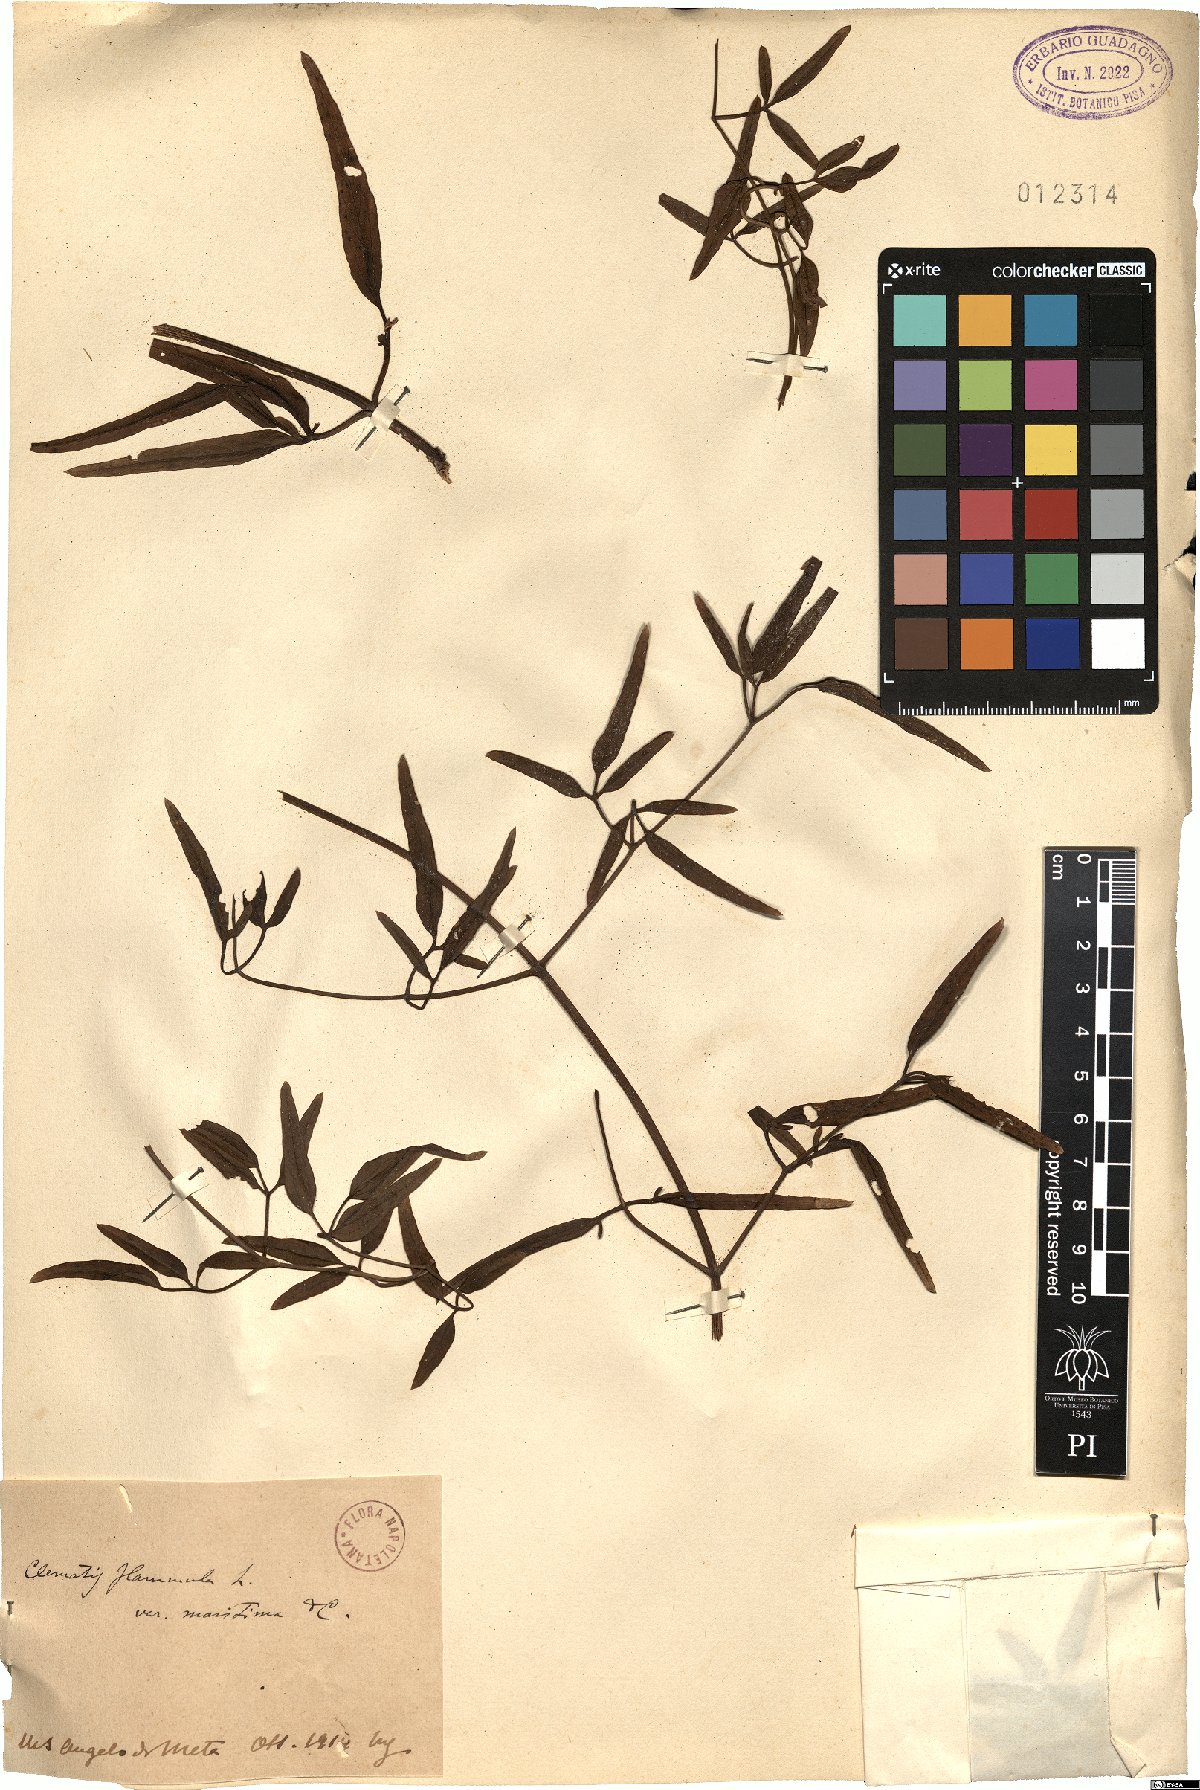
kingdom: Plantae
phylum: Tracheophyta
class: Magnoliopsida
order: Ranunculales
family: Ranunculaceae
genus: Clematis
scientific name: Clematis flammula
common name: Virgin's-bower
